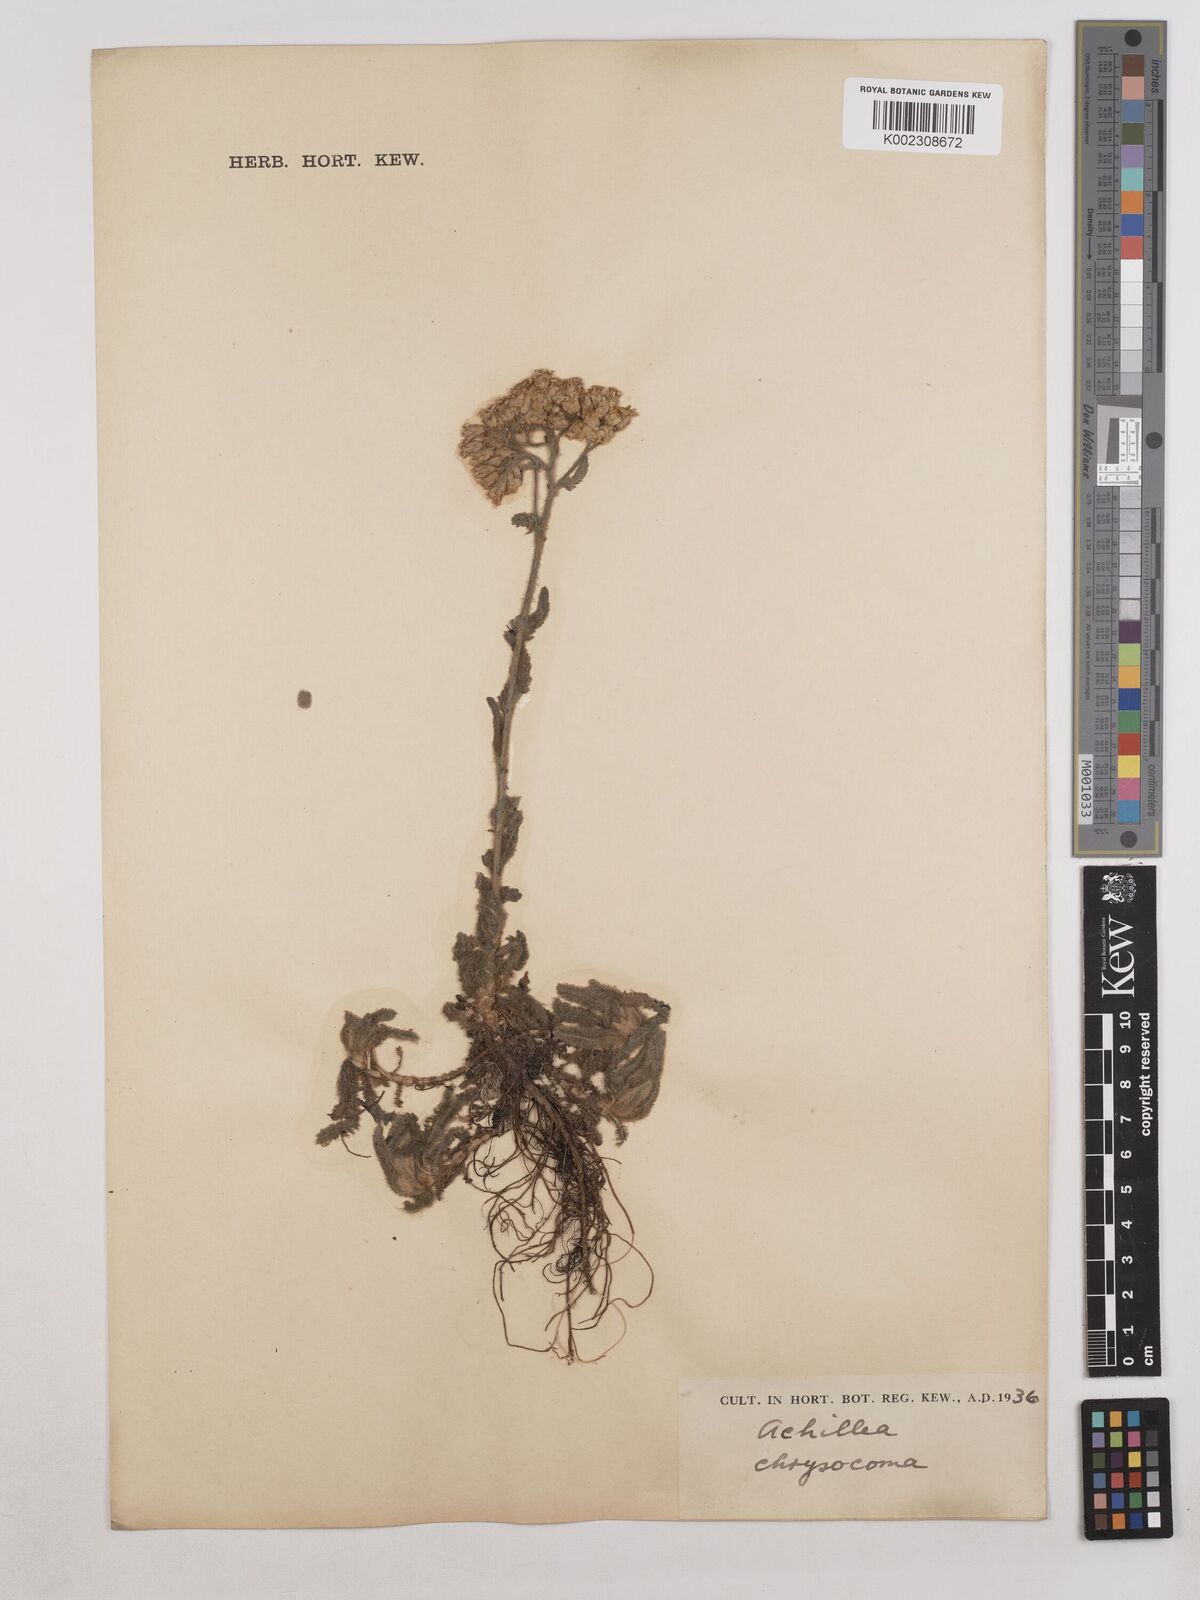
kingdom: Plantae
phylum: Tracheophyta
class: Magnoliopsida
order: Asterales
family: Asteraceae
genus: Achillea
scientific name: Achillea chrysocoma
